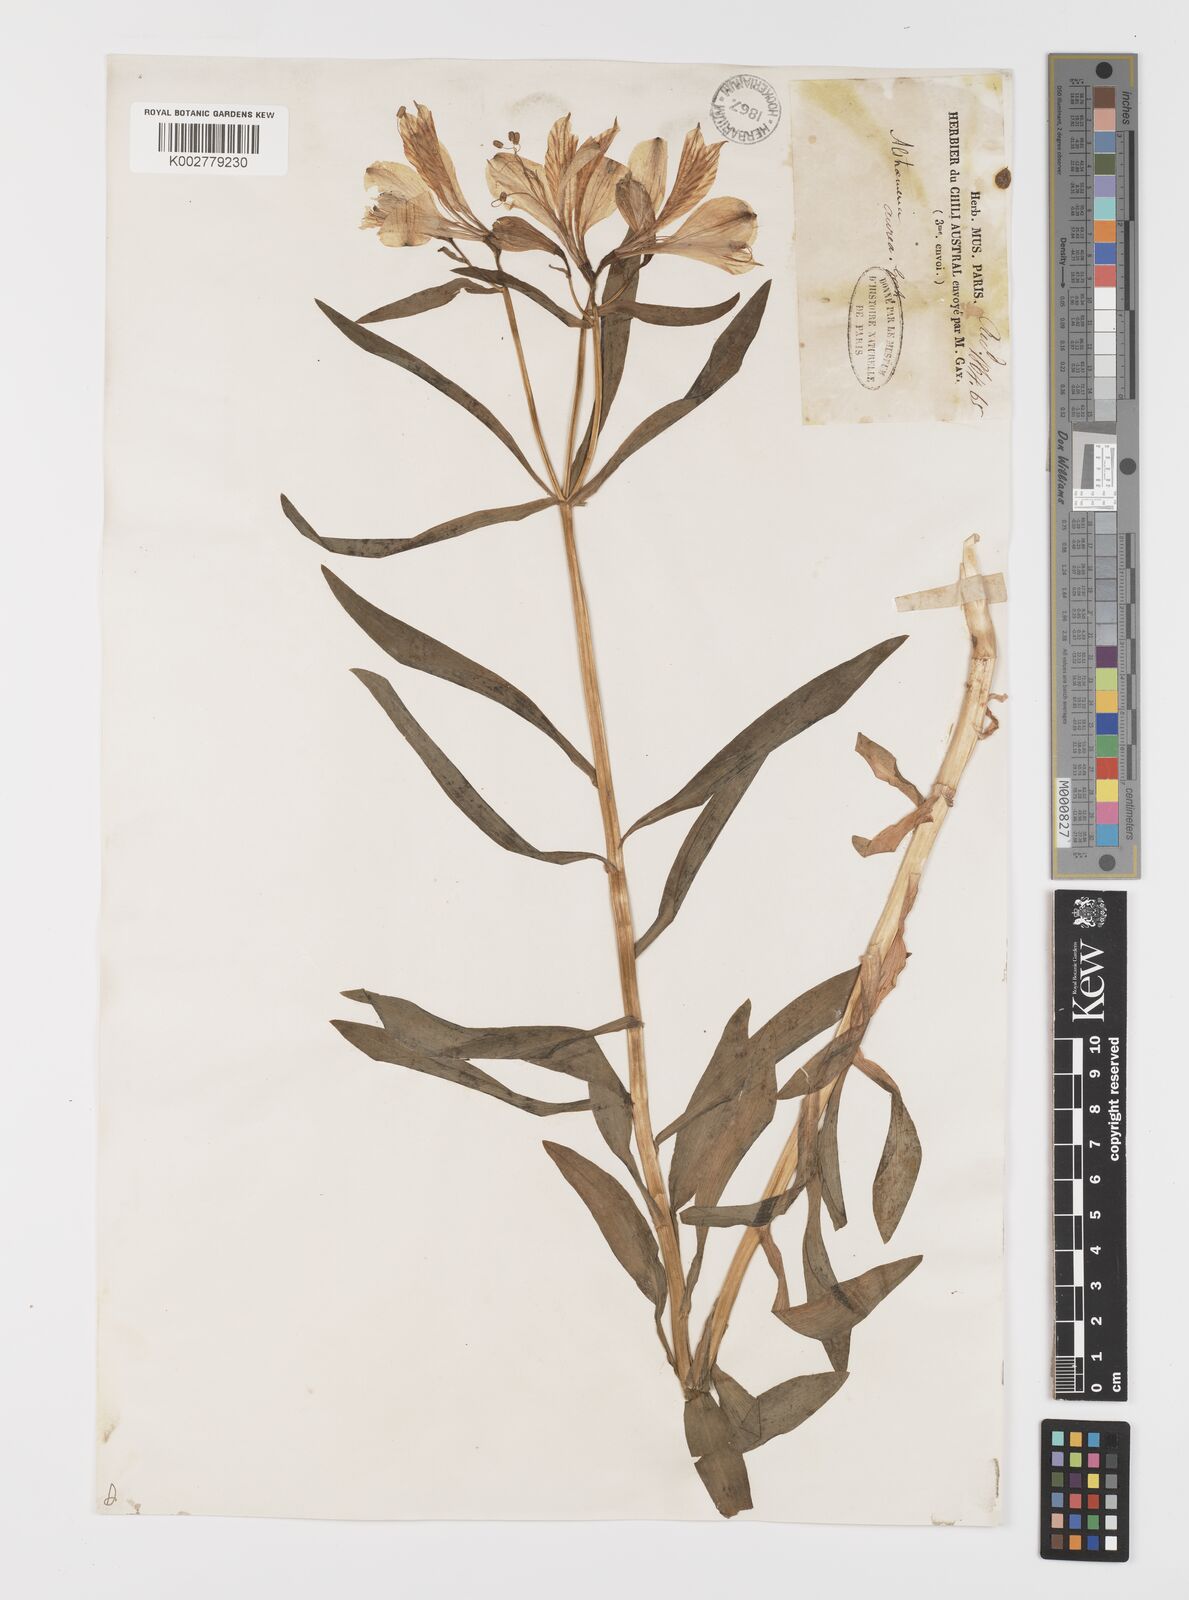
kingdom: Plantae
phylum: Tracheophyta
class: Liliopsida
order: Liliales
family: Alstroemeriaceae
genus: Alstroemeria
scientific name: Alstroemeria aurea
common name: Peruvian lily
